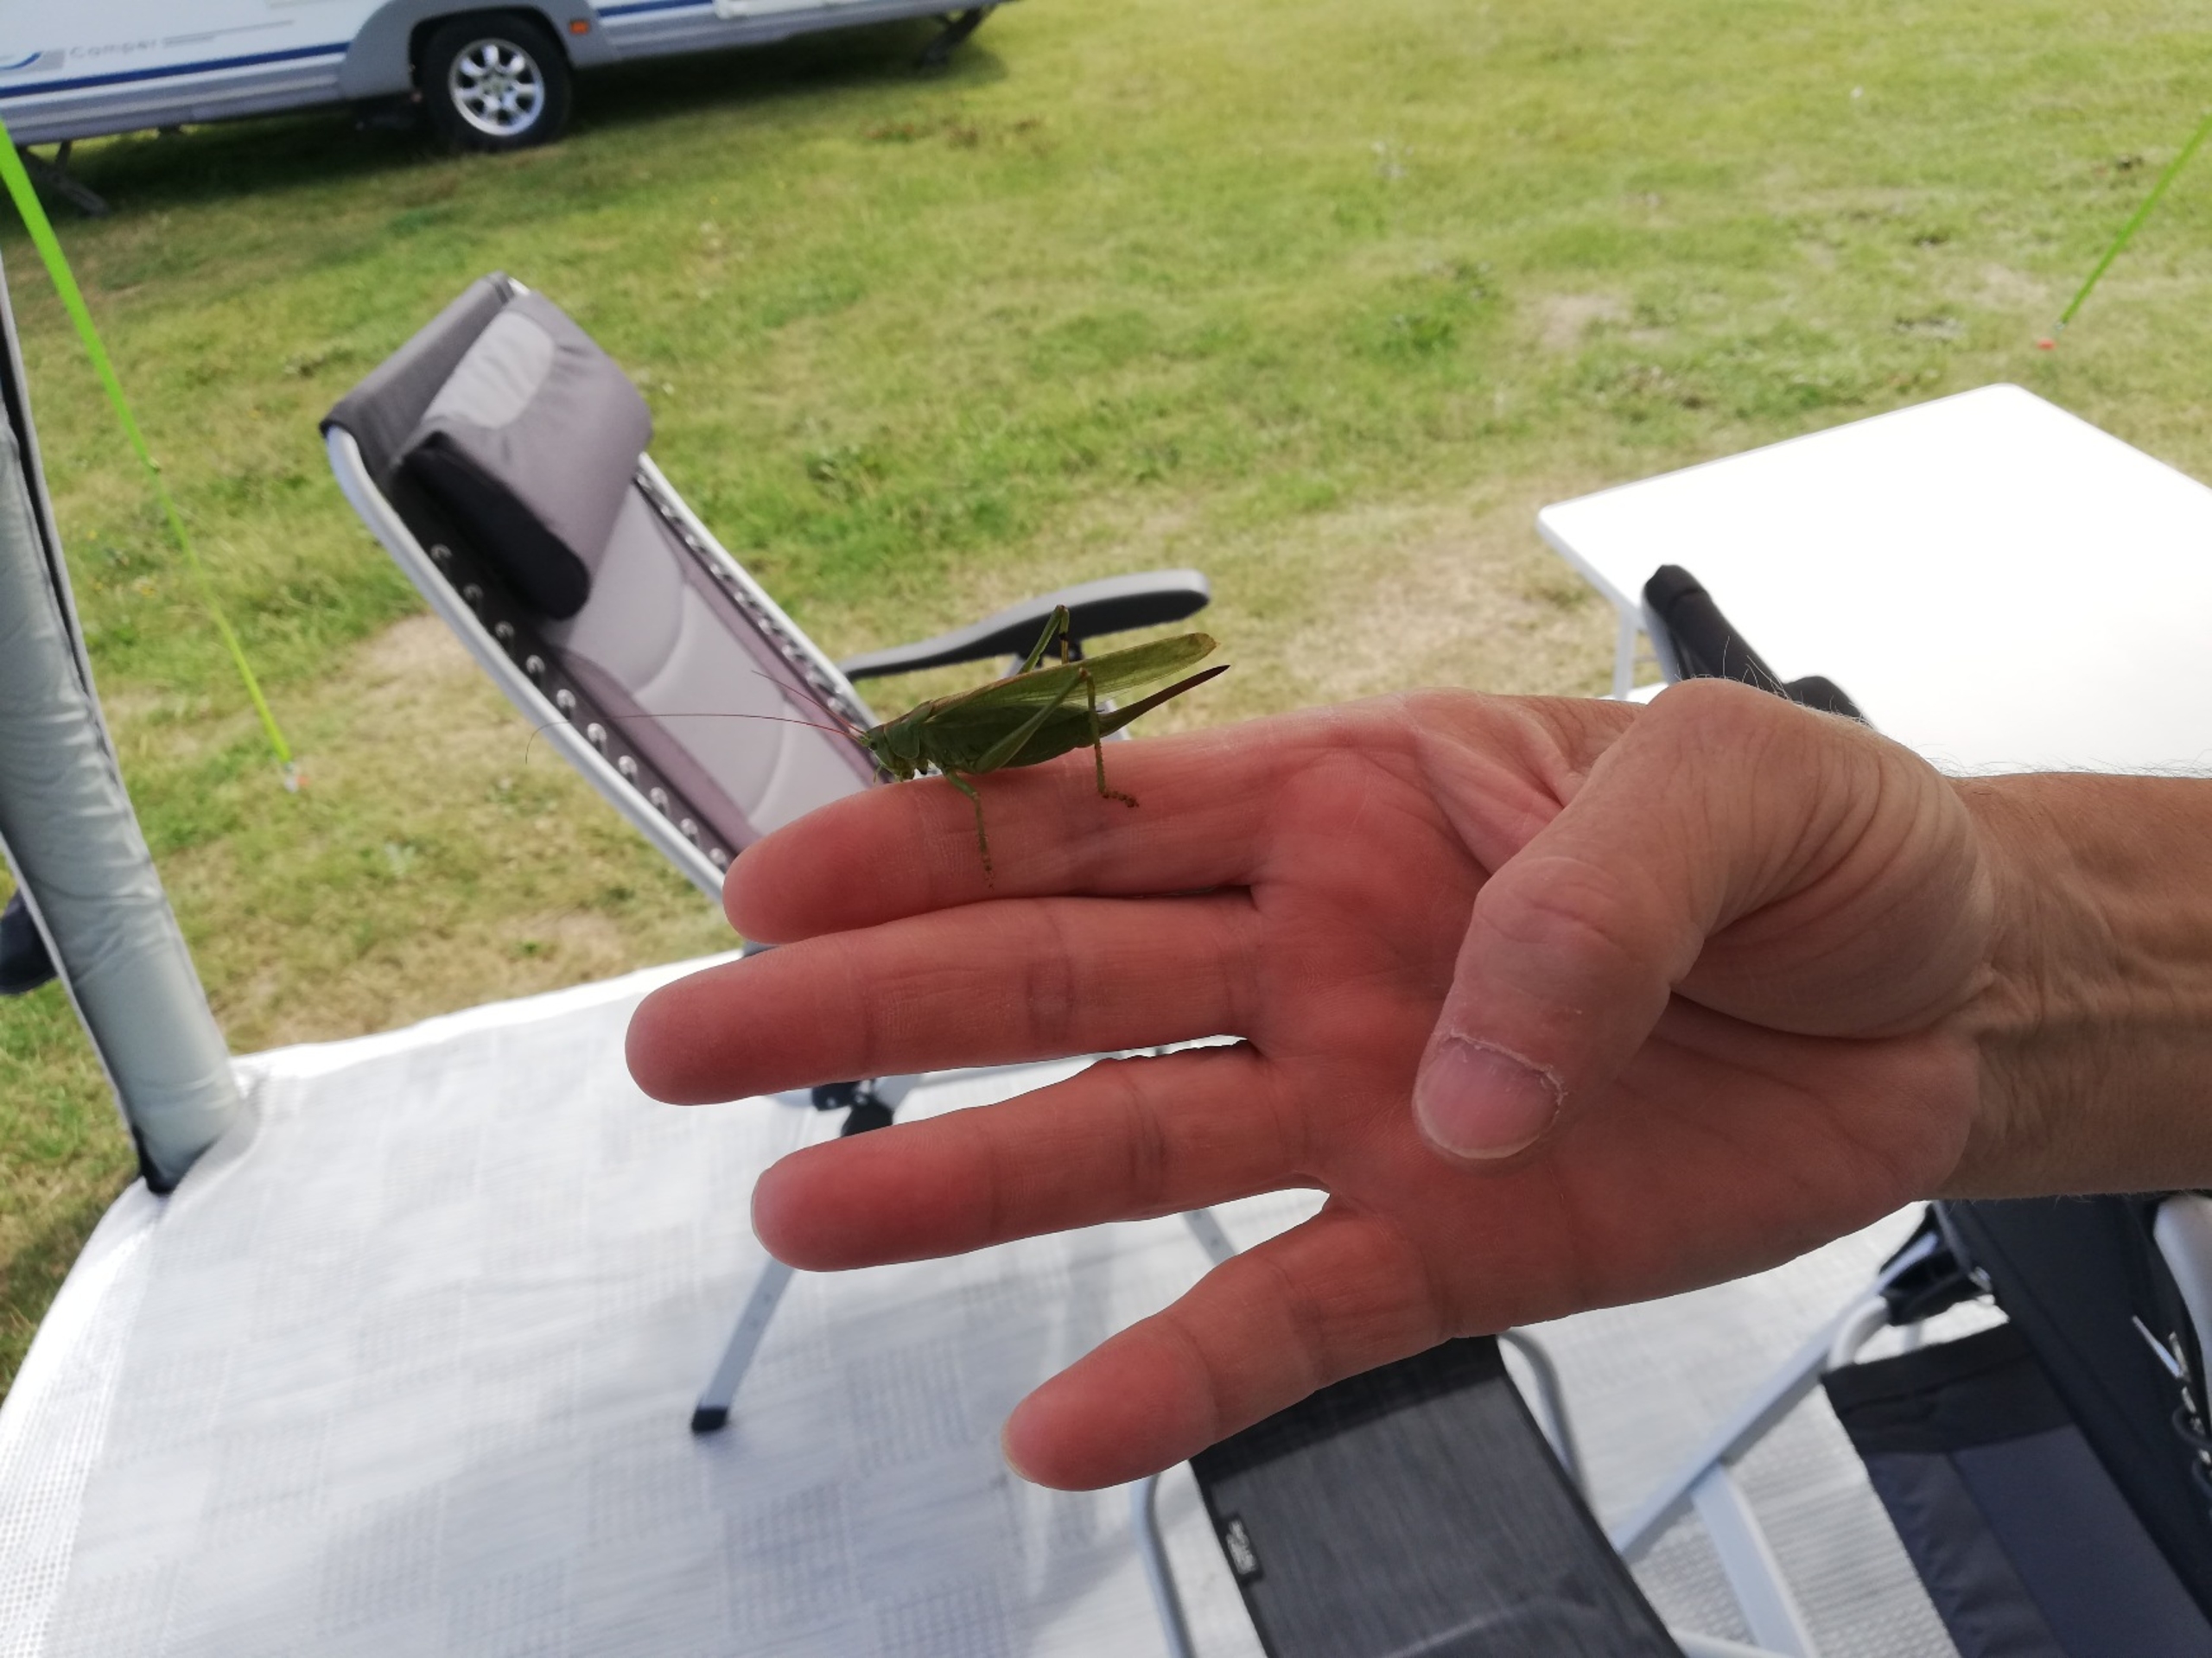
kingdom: Animalia
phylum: Arthropoda
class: Insecta
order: Orthoptera
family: Tettigoniidae
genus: Tettigonia
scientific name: Tettigonia viridissima
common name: Stor grøn løvgræshoppe
